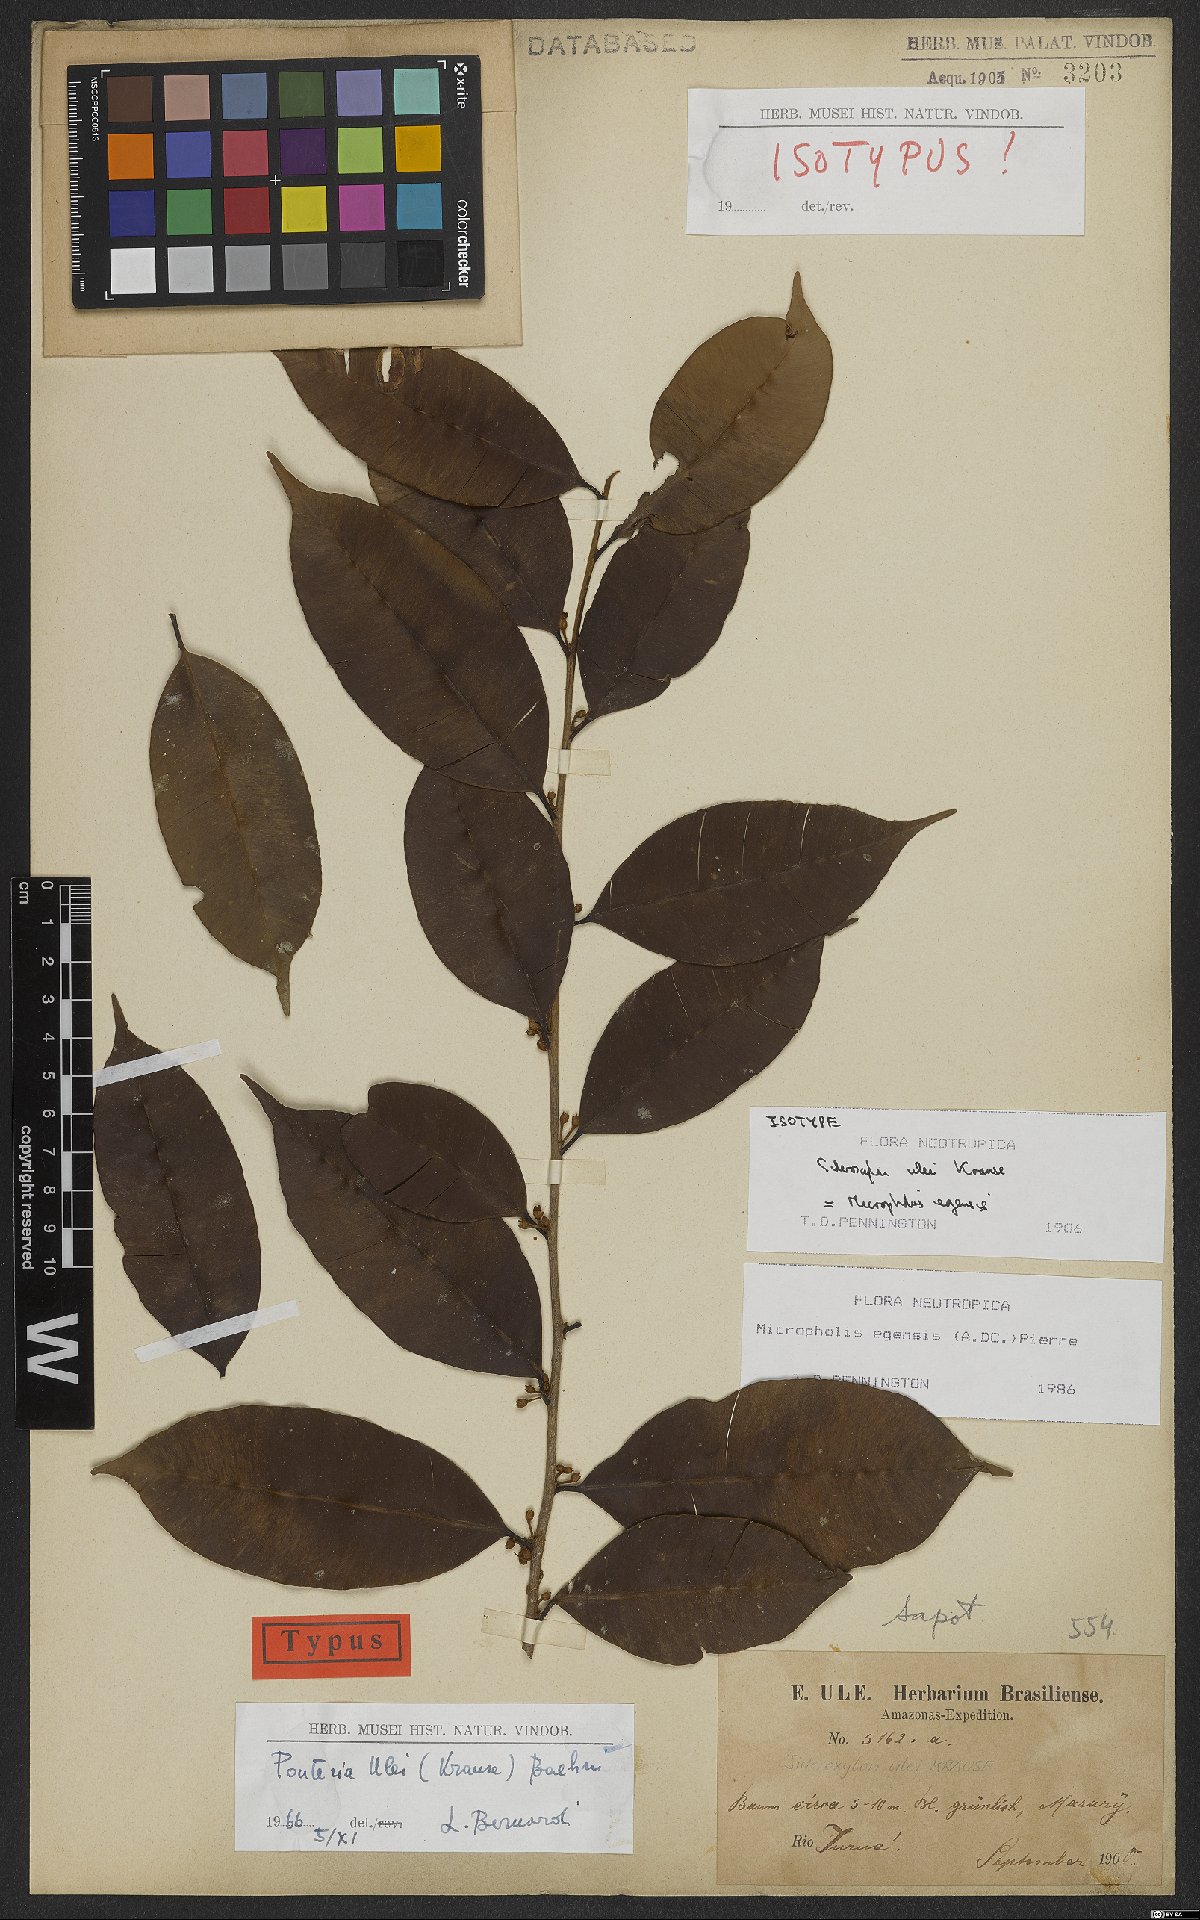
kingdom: Plantae
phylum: Tracheophyta
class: Magnoliopsida
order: Ericales
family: Sapotaceae
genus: Micropholis
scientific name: Micropholis egensis
